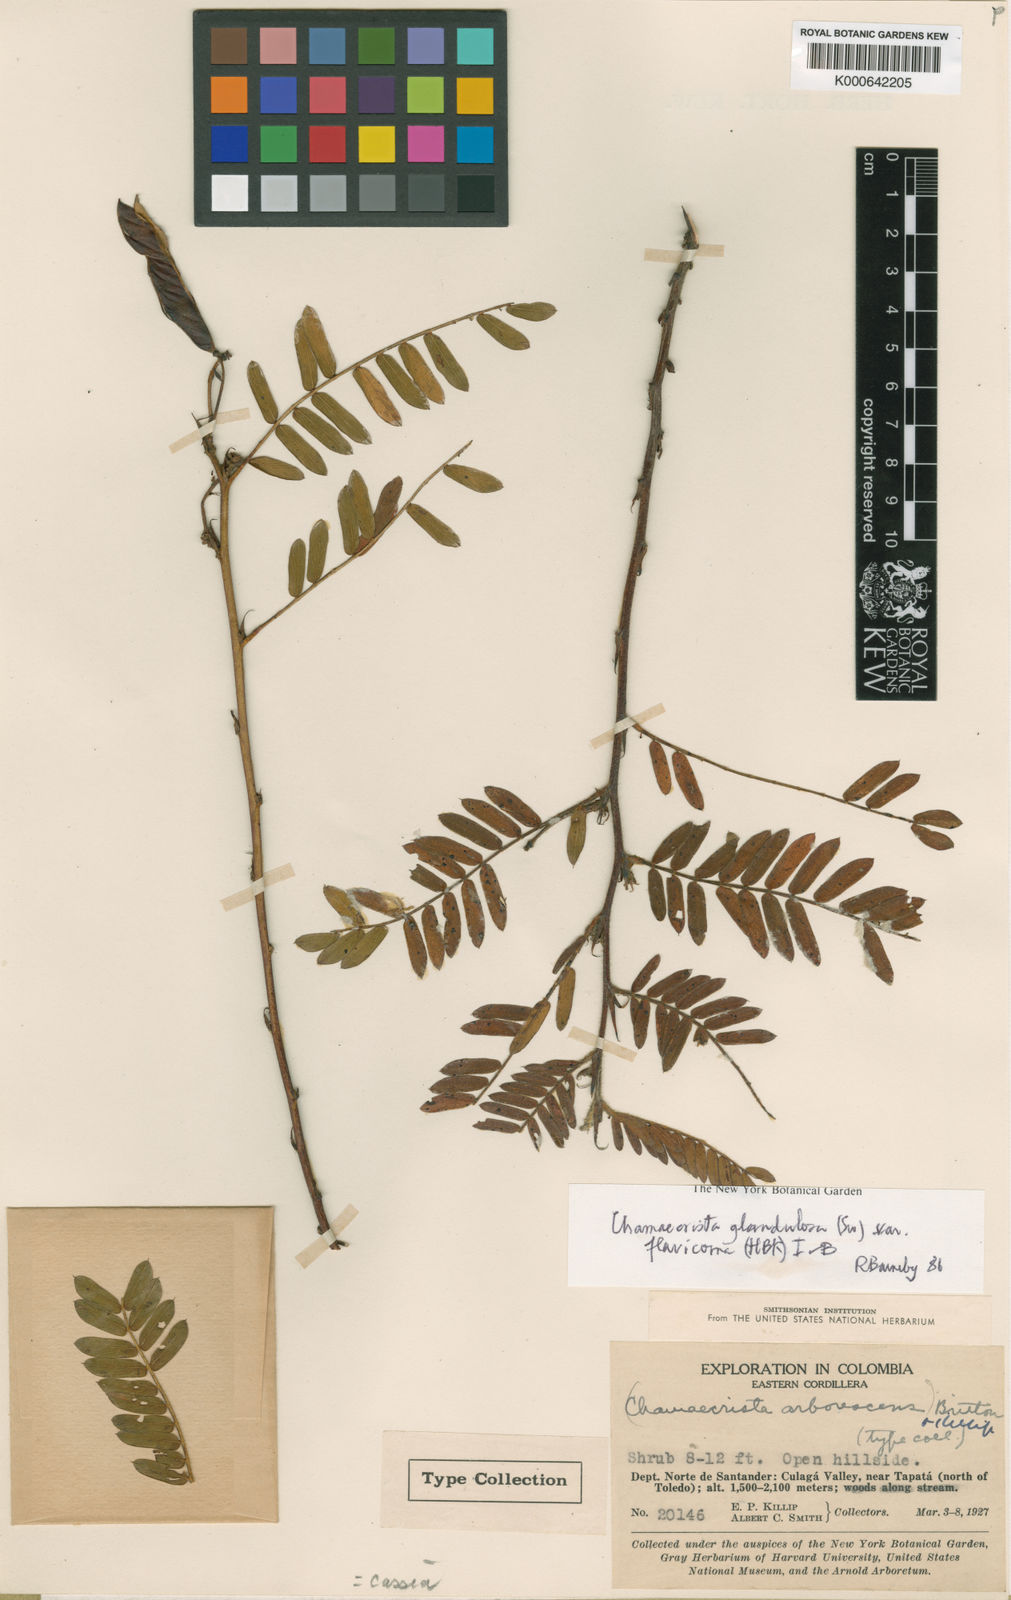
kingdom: Plantae
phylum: Tracheophyta
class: Magnoliopsida
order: Fabales
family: Fabaceae
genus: Chamaecrista
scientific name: Chamaecrista glandulosa
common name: Wild peas
